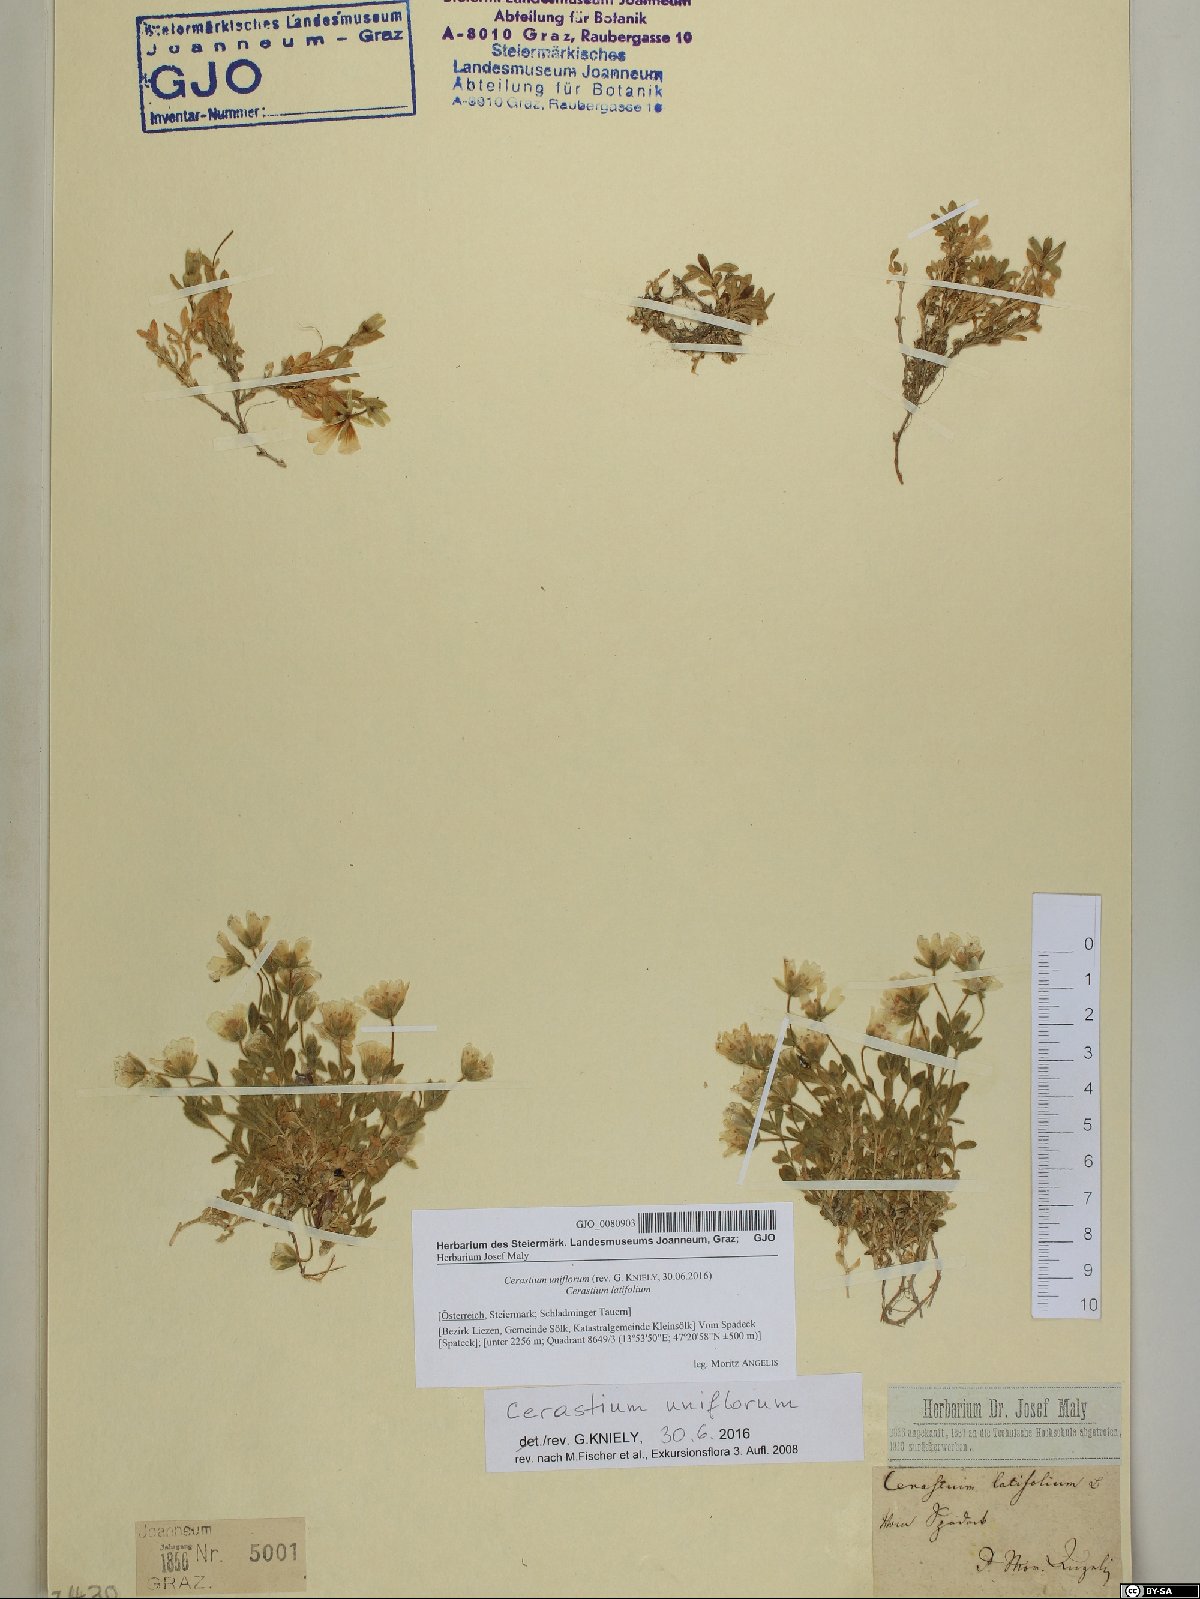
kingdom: Plantae
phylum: Tracheophyta
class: Magnoliopsida
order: Caryophyllales
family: Caryophyllaceae
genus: Cerastium
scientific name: Cerastium uniflorum
